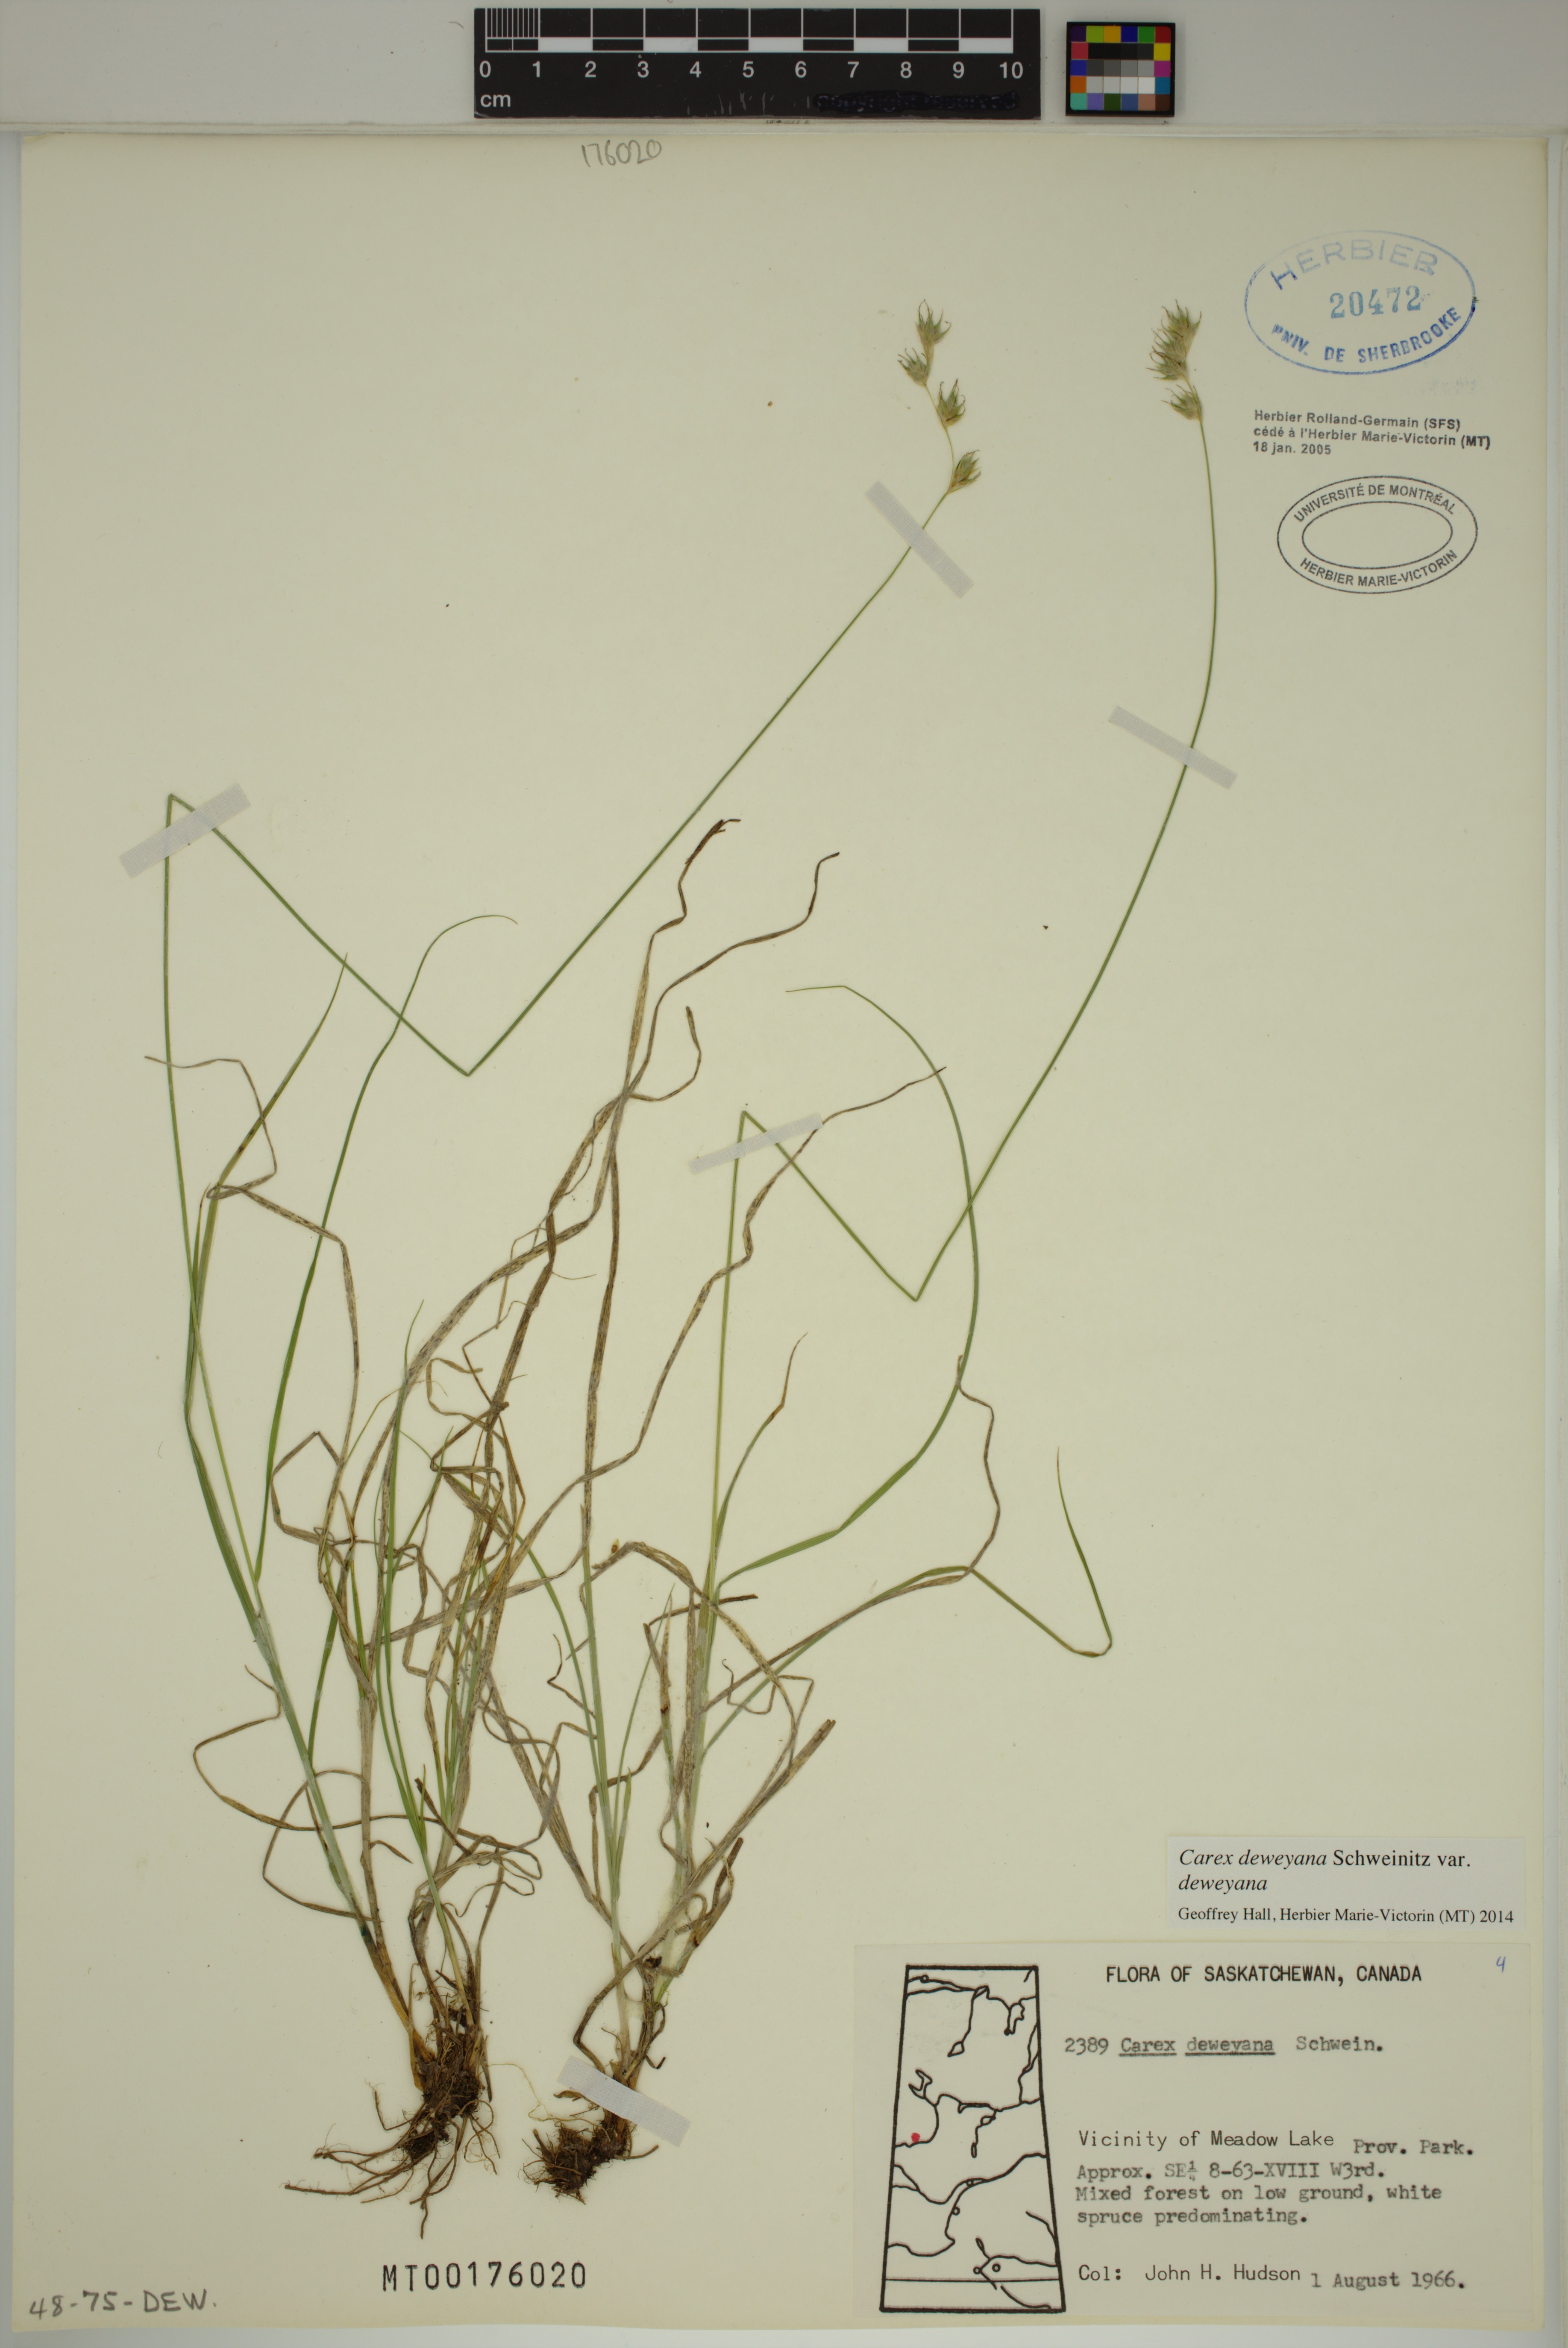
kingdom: Plantae
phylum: Tracheophyta
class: Liliopsida
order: Poales
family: Cyperaceae
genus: Carex
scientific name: Carex deweyana
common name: Dewey's sedge
